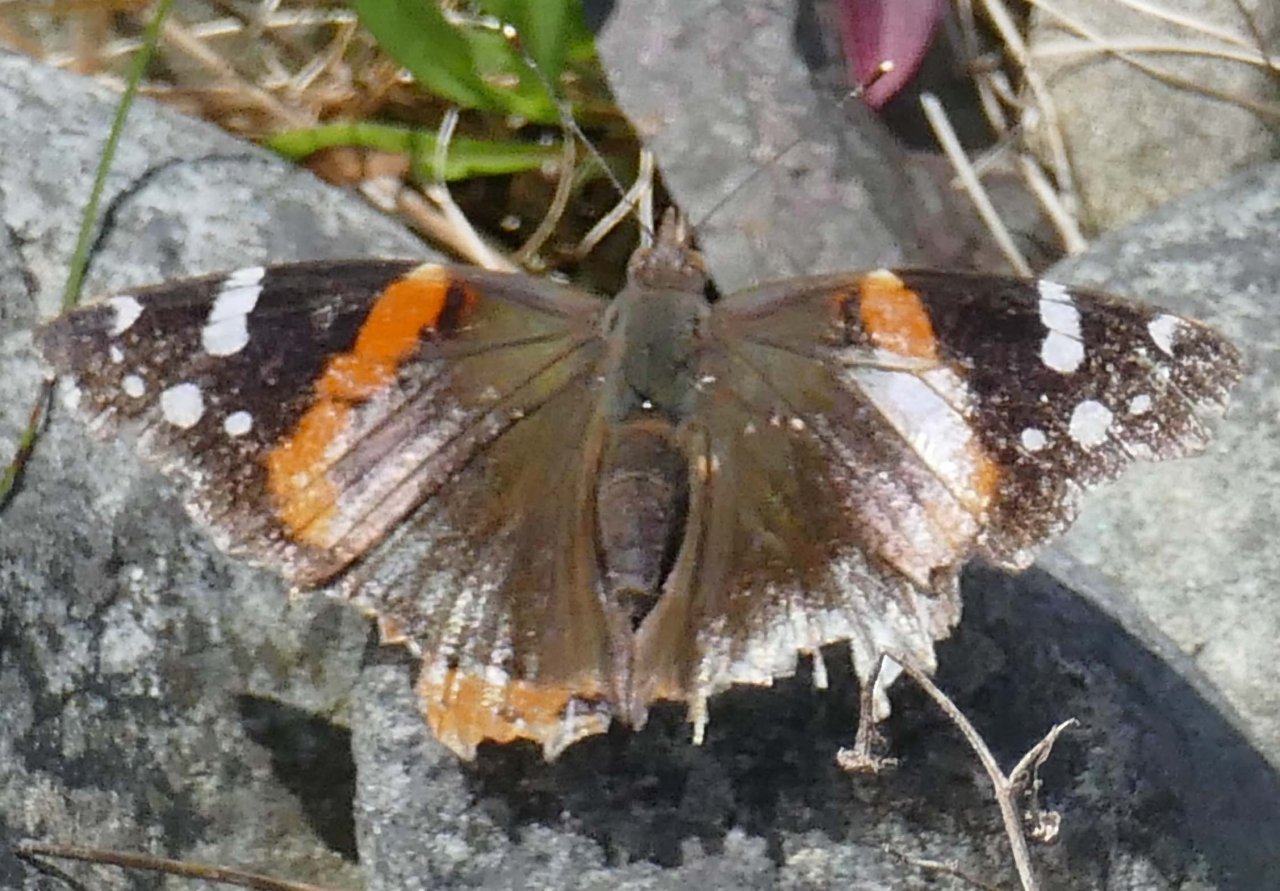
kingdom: Animalia
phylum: Arthropoda
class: Insecta
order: Lepidoptera
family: Nymphalidae
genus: Vanessa
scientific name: Vanessa atalanta
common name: Red Admiral
